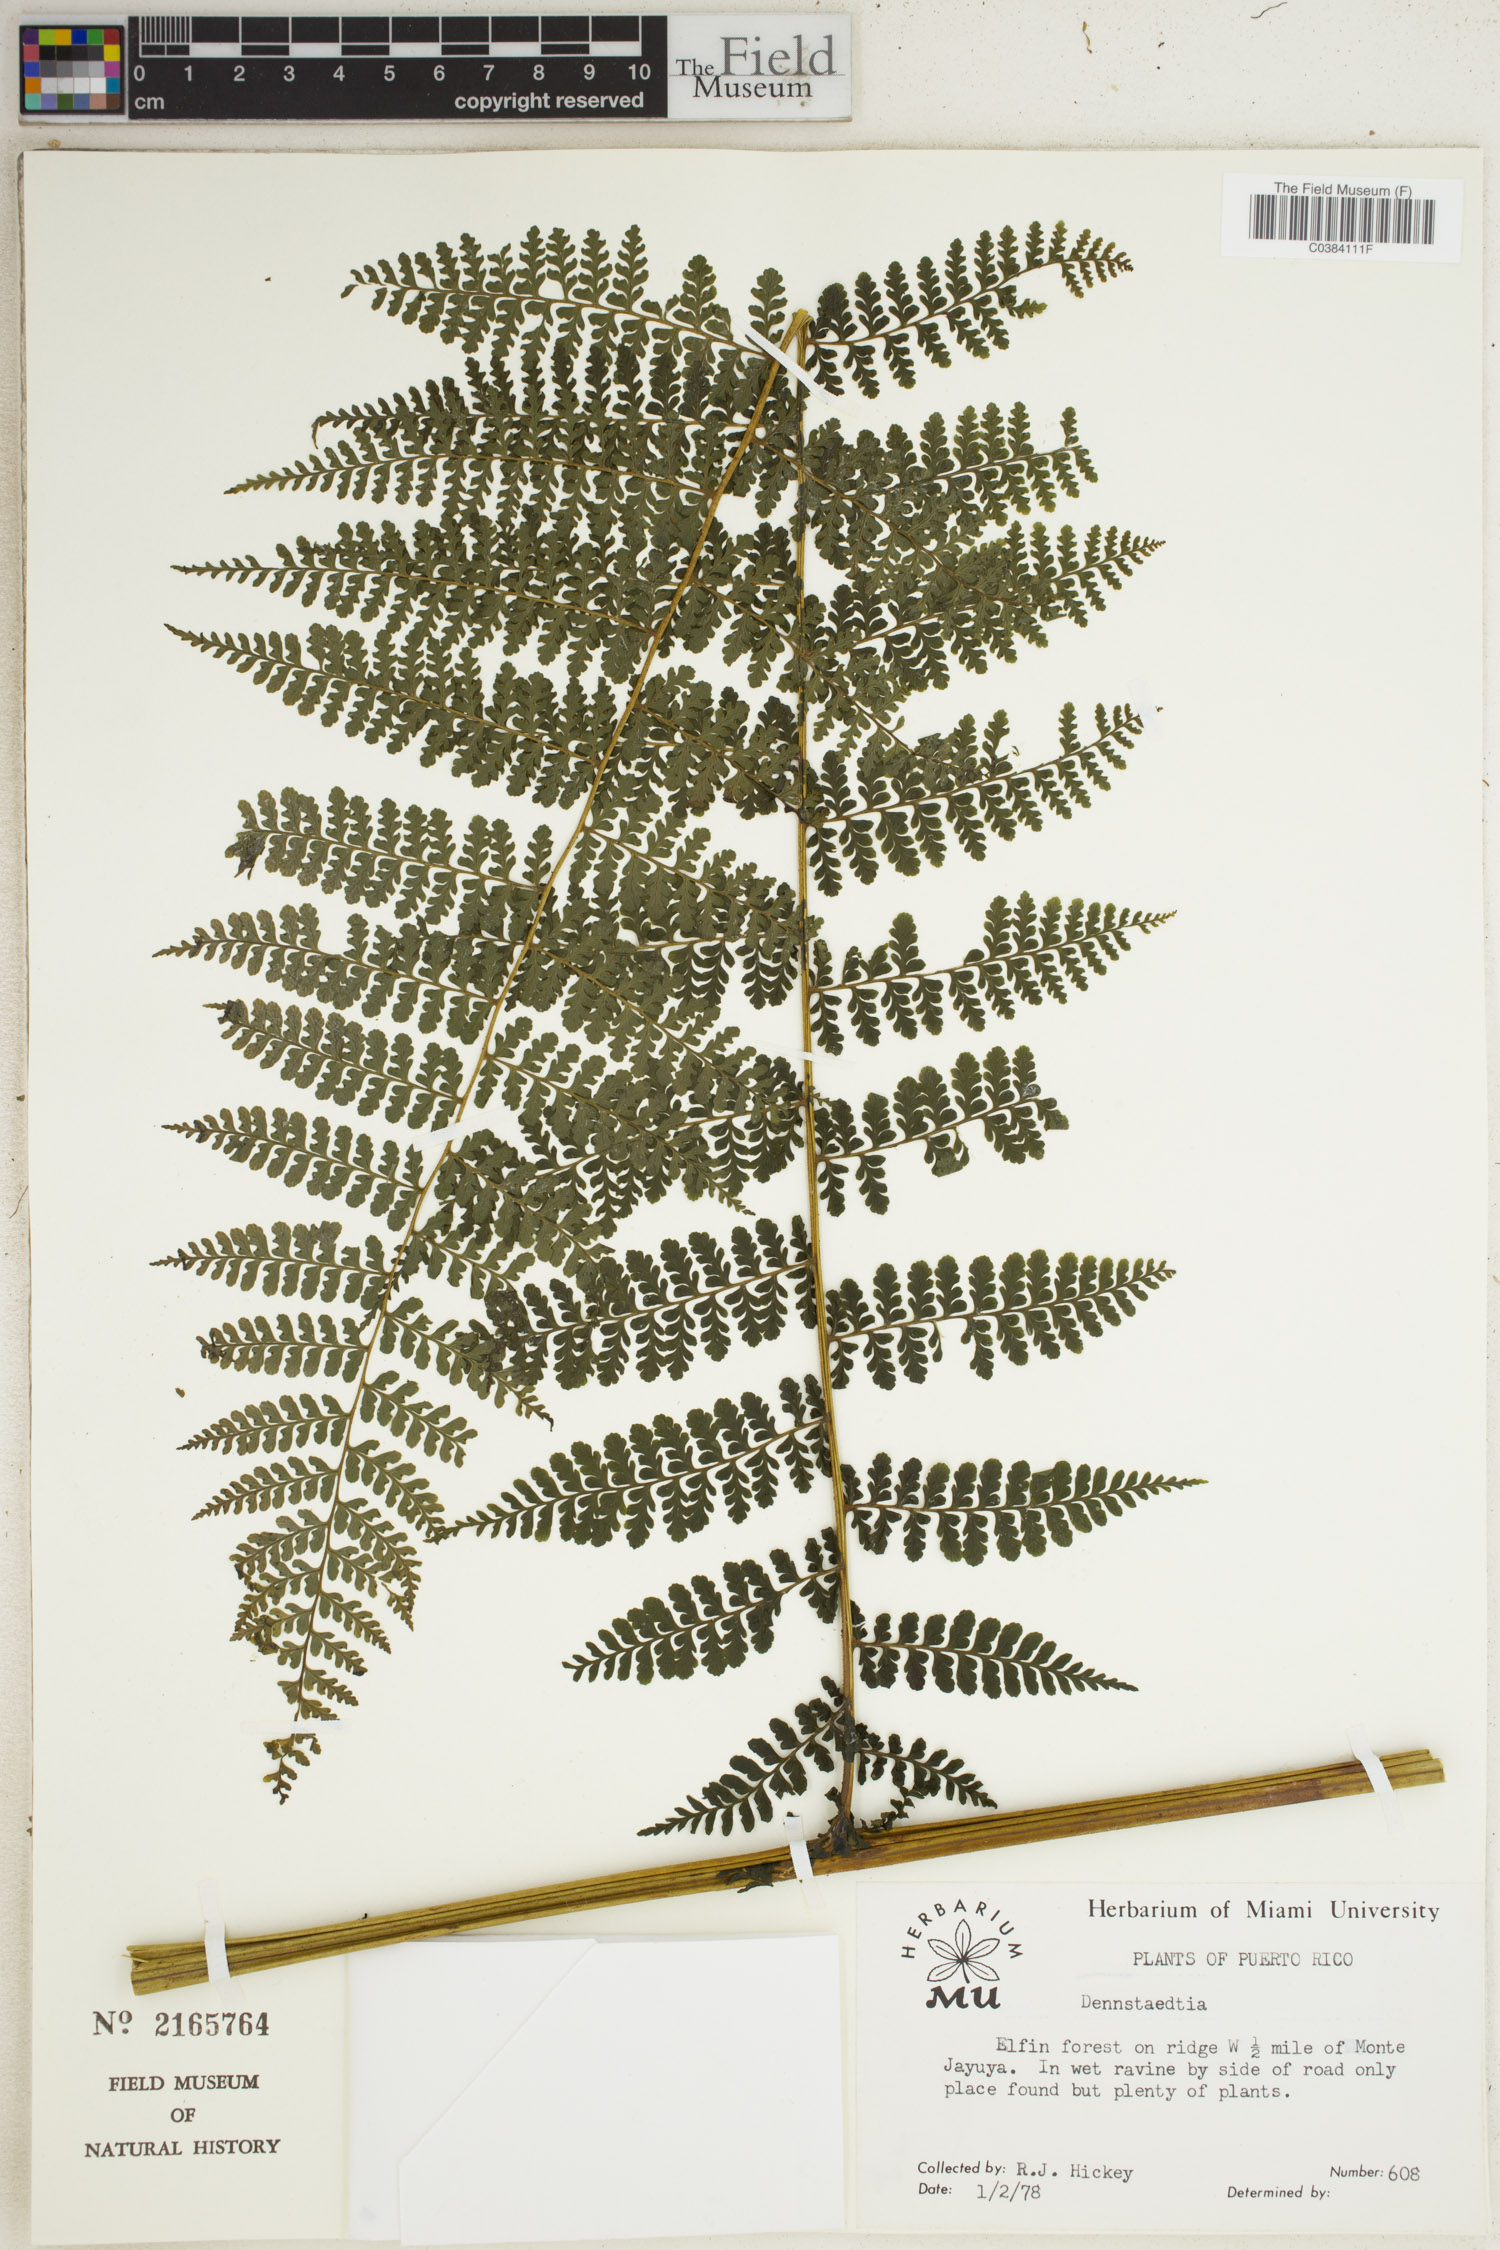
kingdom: Plantae
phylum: Tracheophyta
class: Polypodiopsida
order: Polypodiales
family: Dennstaedtiaceae
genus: Dennstaedtia
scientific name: Dennstaedtia
